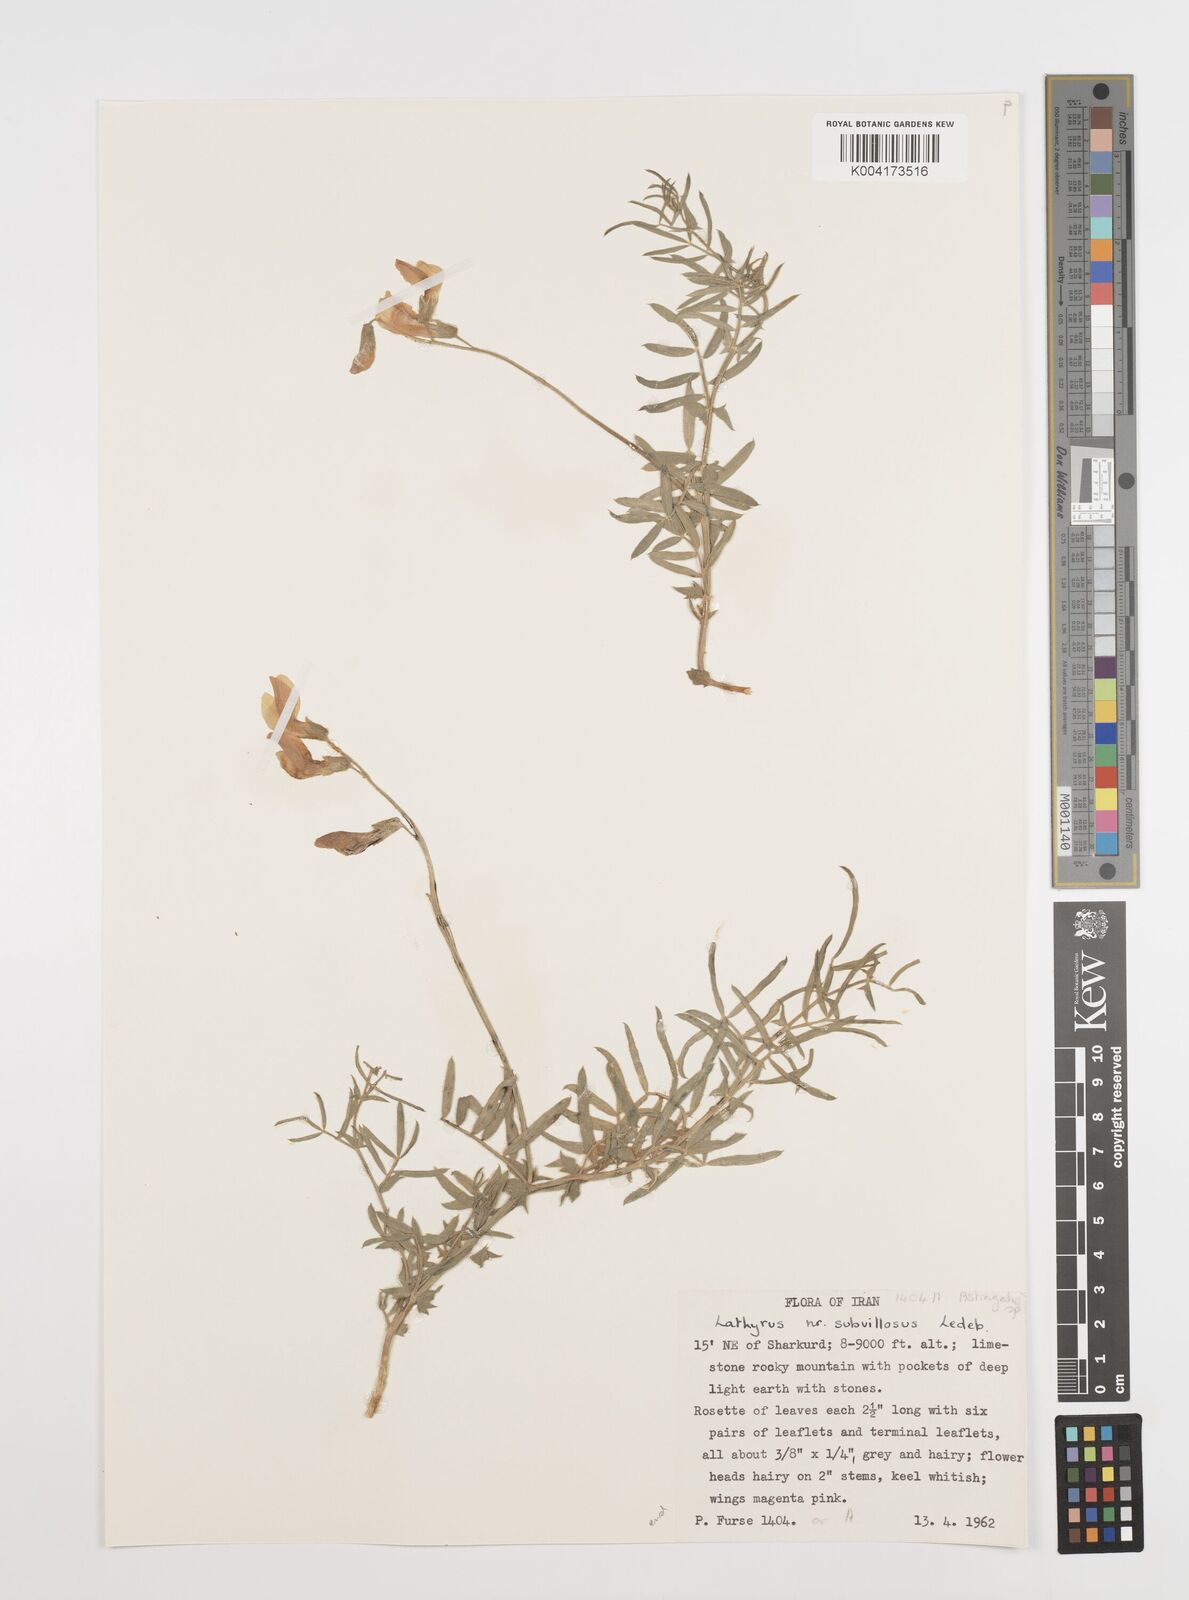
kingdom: Plantae
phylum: Tracheophyta
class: Magnoliopsida
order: Fabales
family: Fabaceae
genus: Vicia
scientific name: Vicia subvillosa
